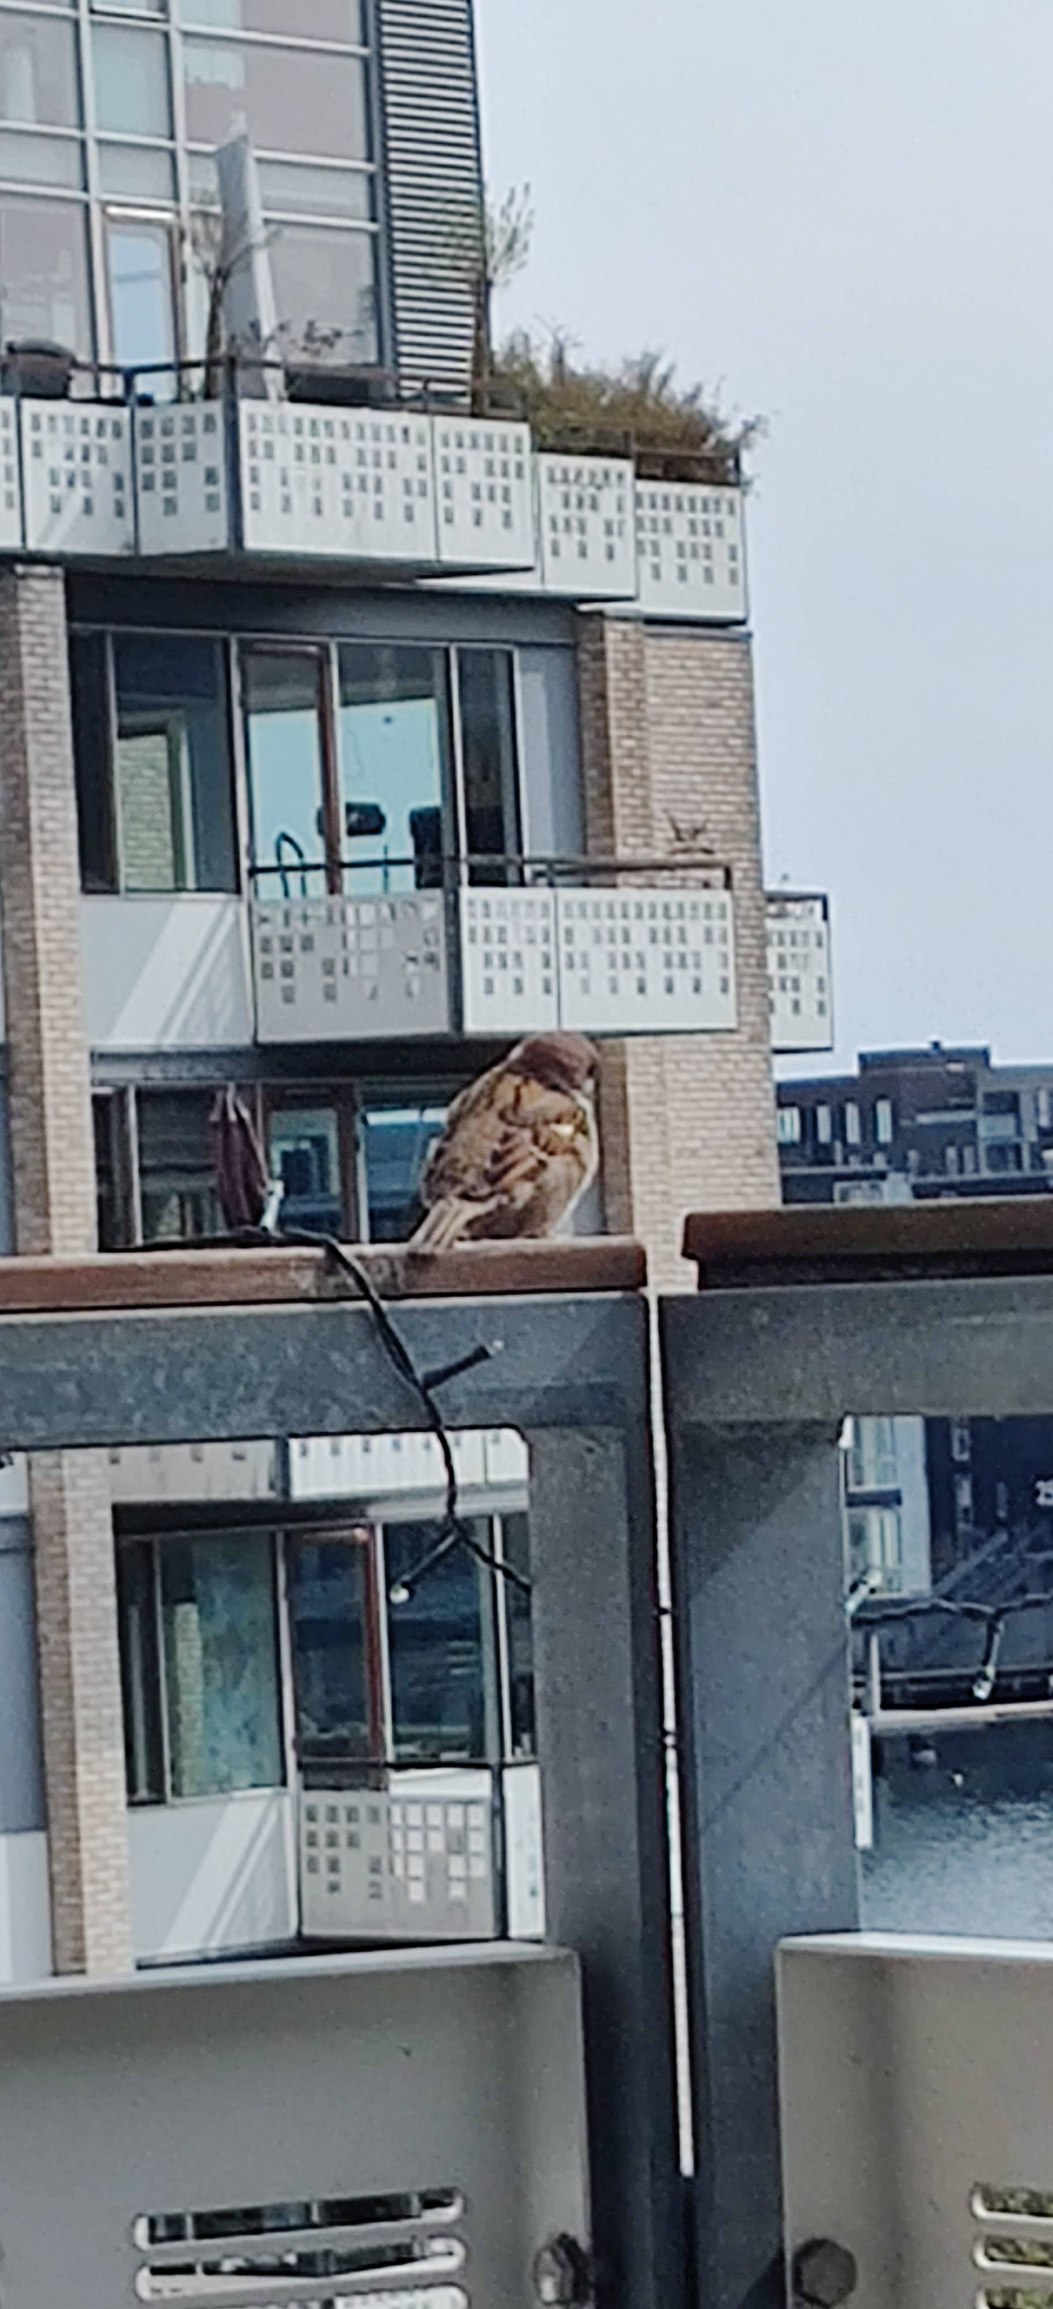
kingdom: Animalia
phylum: Chordata
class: Aves
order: Passeriformes
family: Passeridae
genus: Passer
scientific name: Passer domesticus
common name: Gråspurv
